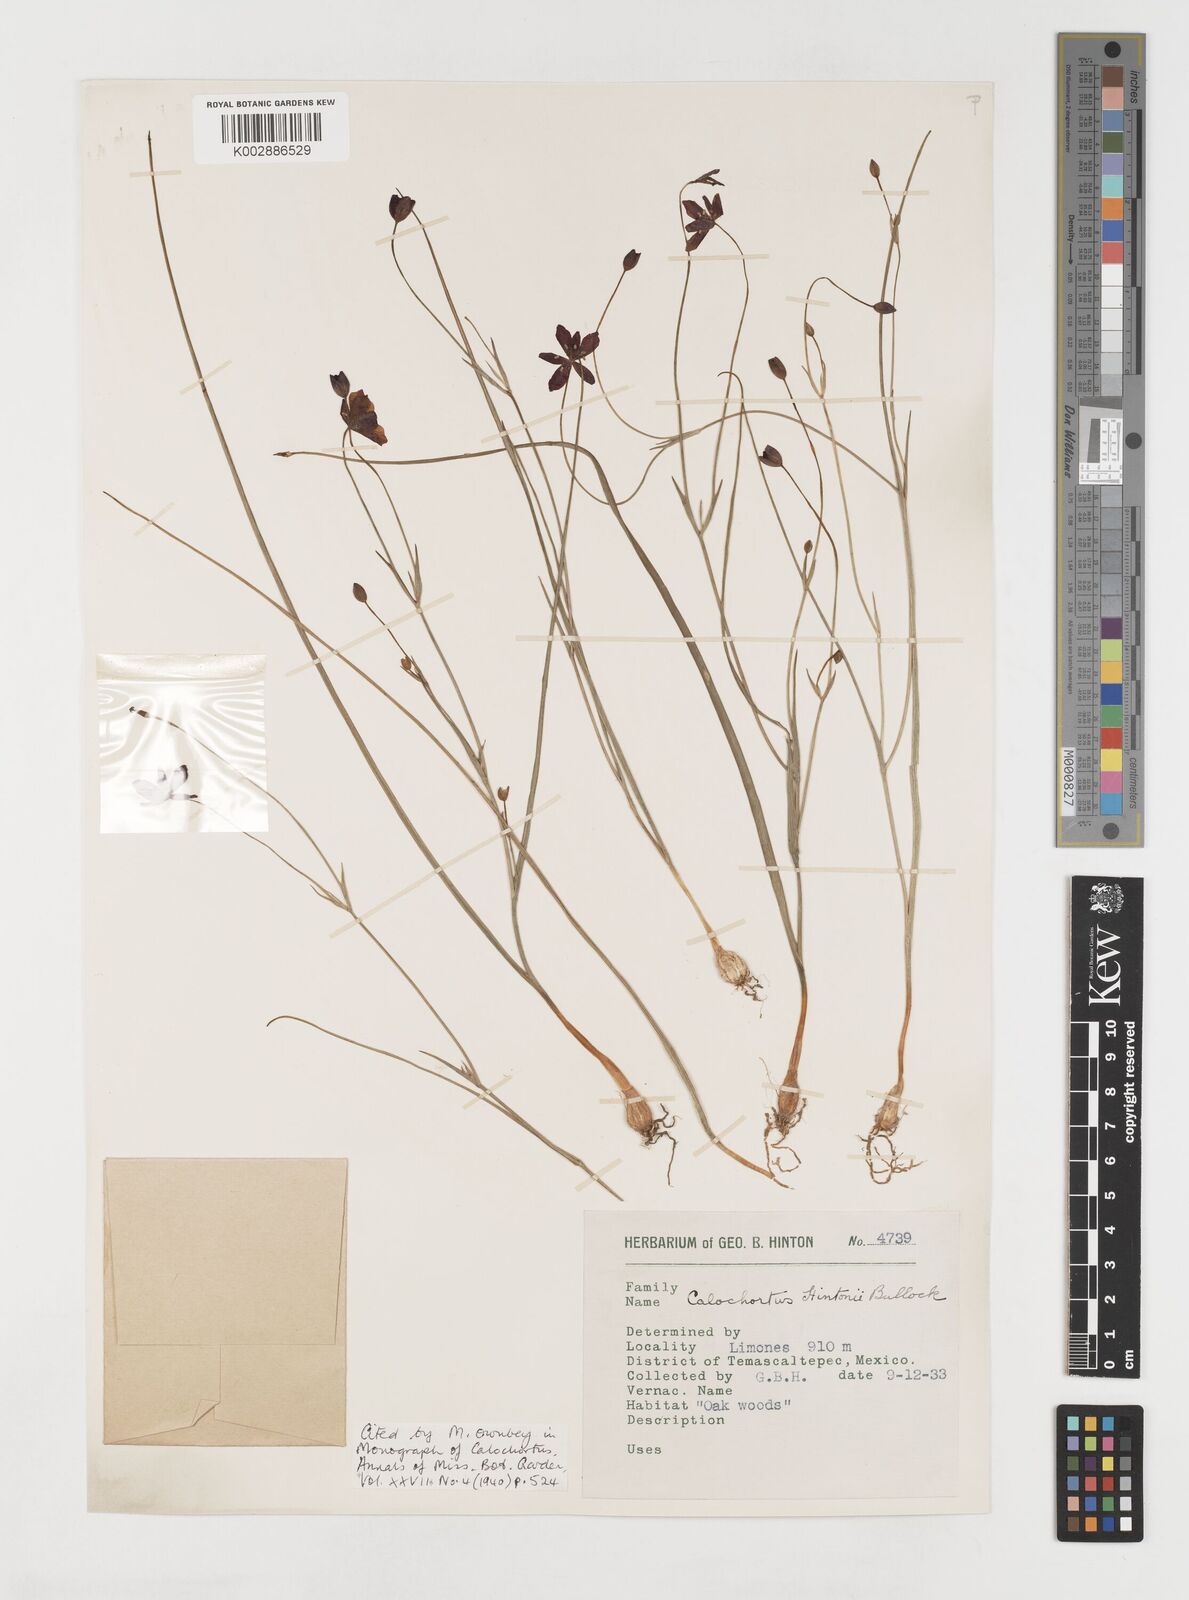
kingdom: Plantae
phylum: Tracheophyta
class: Liliopsida
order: Liliales
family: Liliaceae
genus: Calochortus
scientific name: Calochortus fuscus
